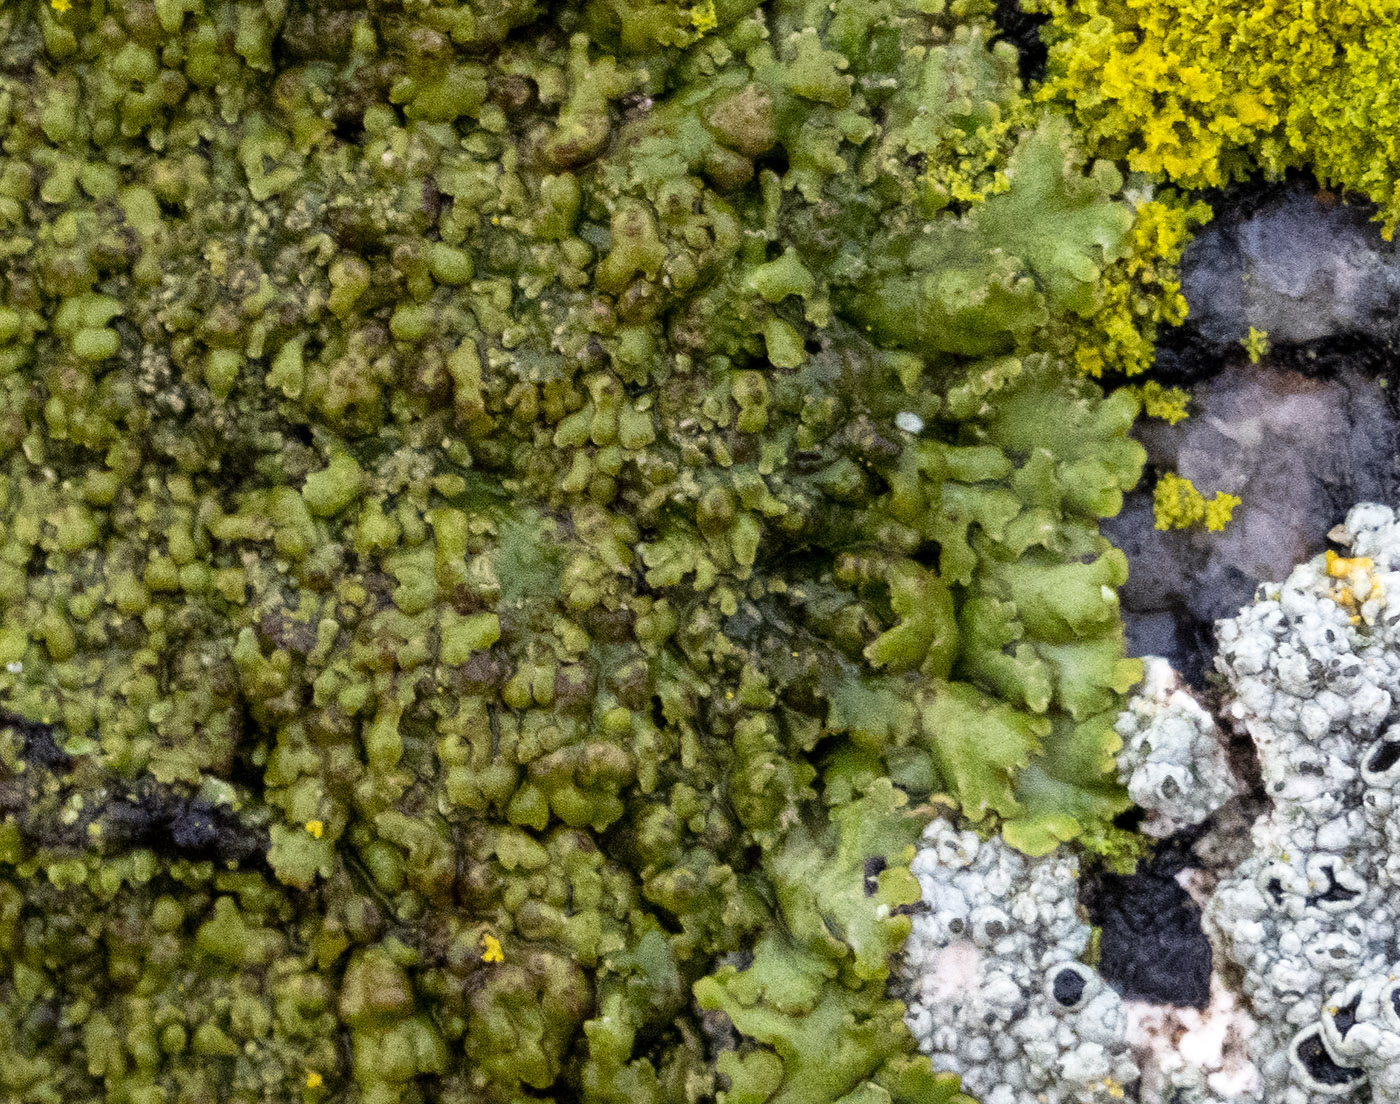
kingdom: Fungi
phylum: Ascomycota
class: Lecanoromycetes
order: Caliciales
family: Physciaceae
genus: Kurokawia
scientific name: Kurokawia runcinata
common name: brun frynselav
